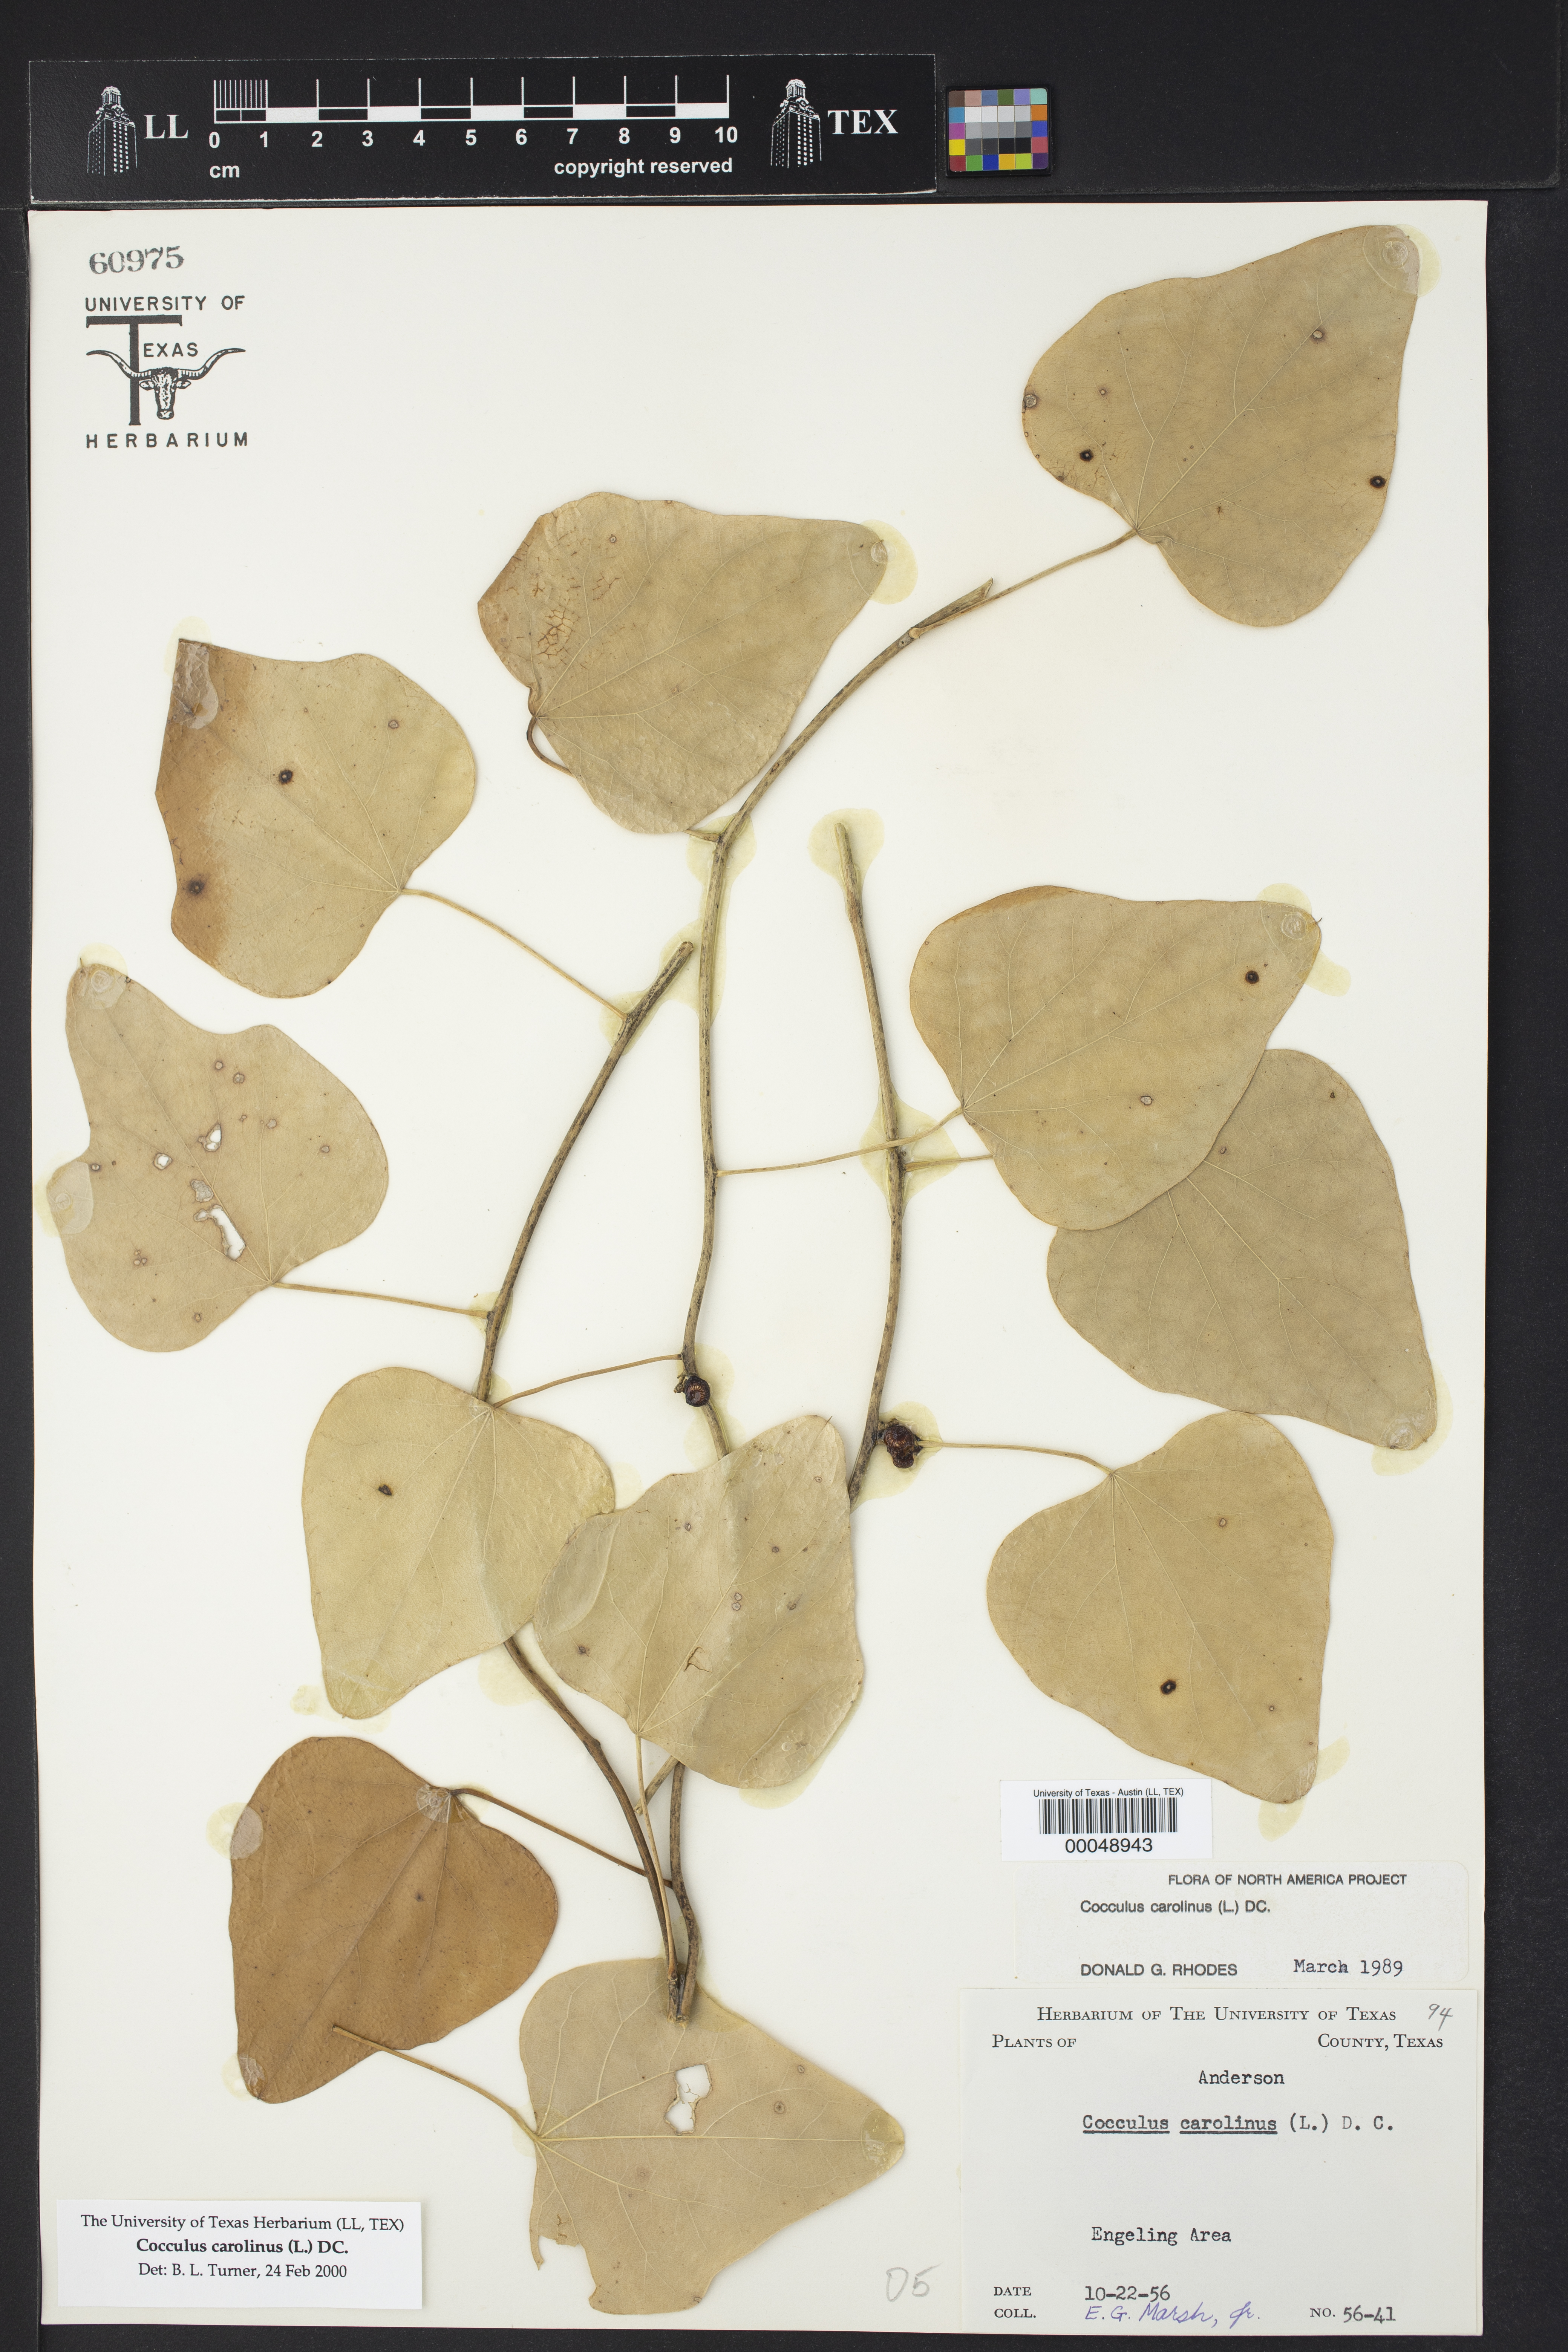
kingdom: Plantae
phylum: Tracheophyta
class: Magnoliopsida
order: Ranunculales
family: Menispermaceae
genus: Cocculus
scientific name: Cocculus carolinus
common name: Carolina moonseed
